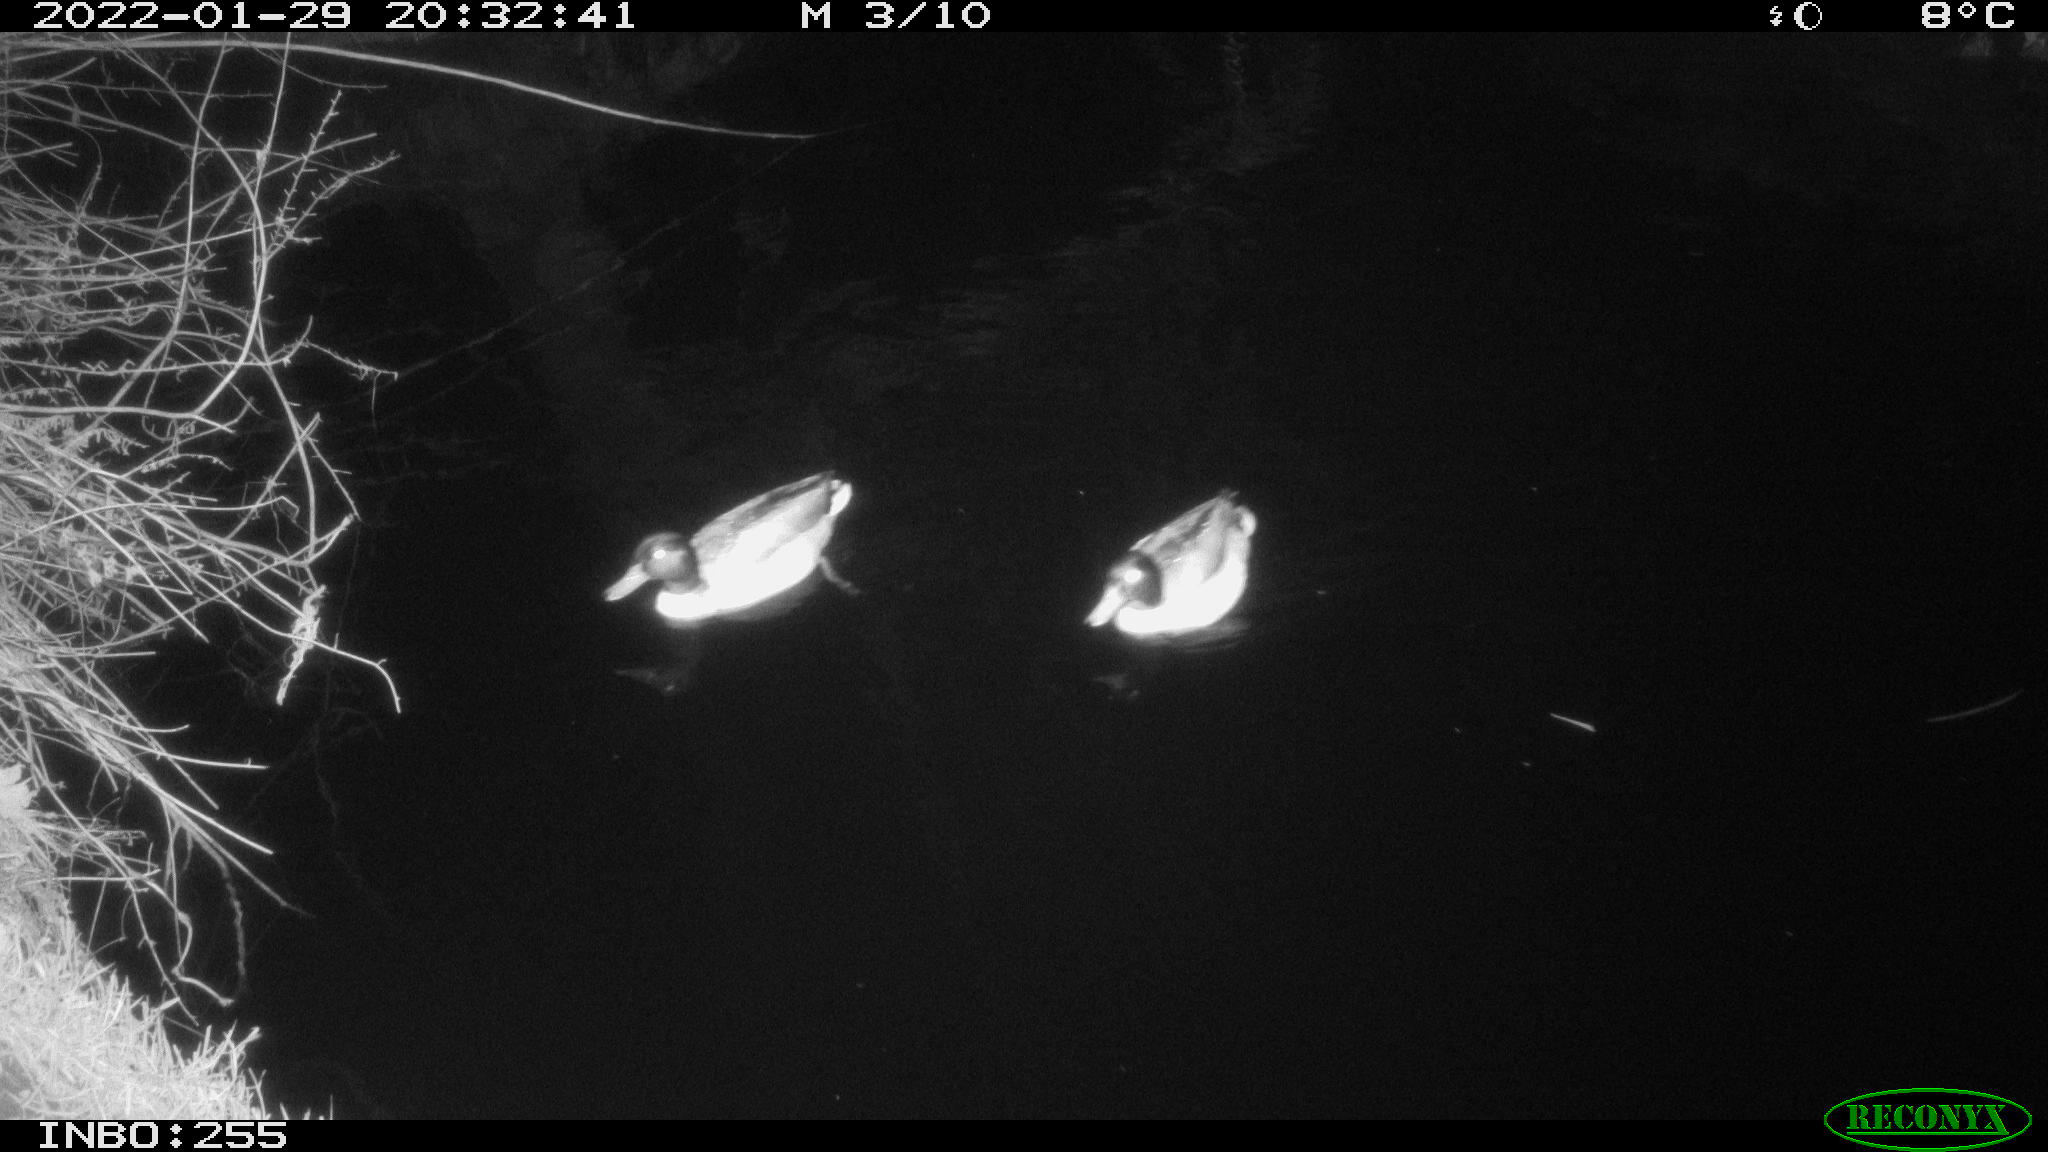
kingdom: Animalia
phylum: Chordata
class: Aves
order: Anseriformes
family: Anatidae
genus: Anas
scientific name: Anas
